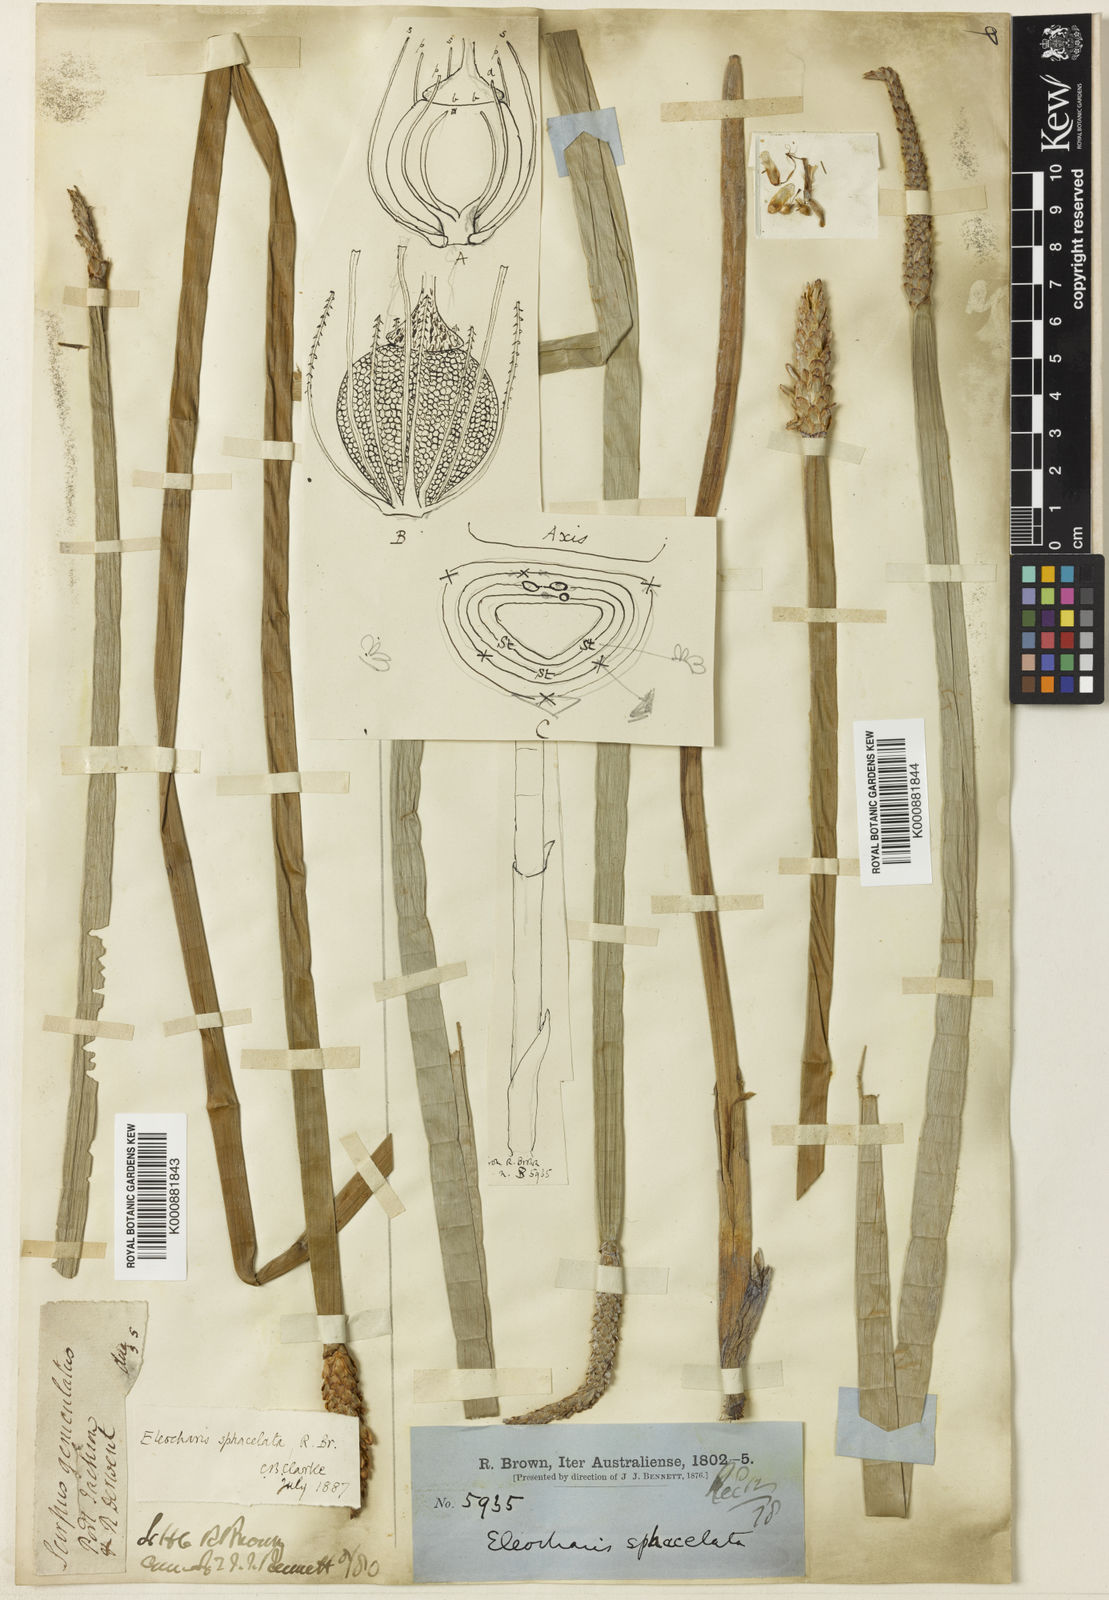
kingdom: Plantae
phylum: Tracheophyta
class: Liliopsida
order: Poales
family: Cyperaceae
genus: Eleocharis
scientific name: Eleocharis sphacelata
